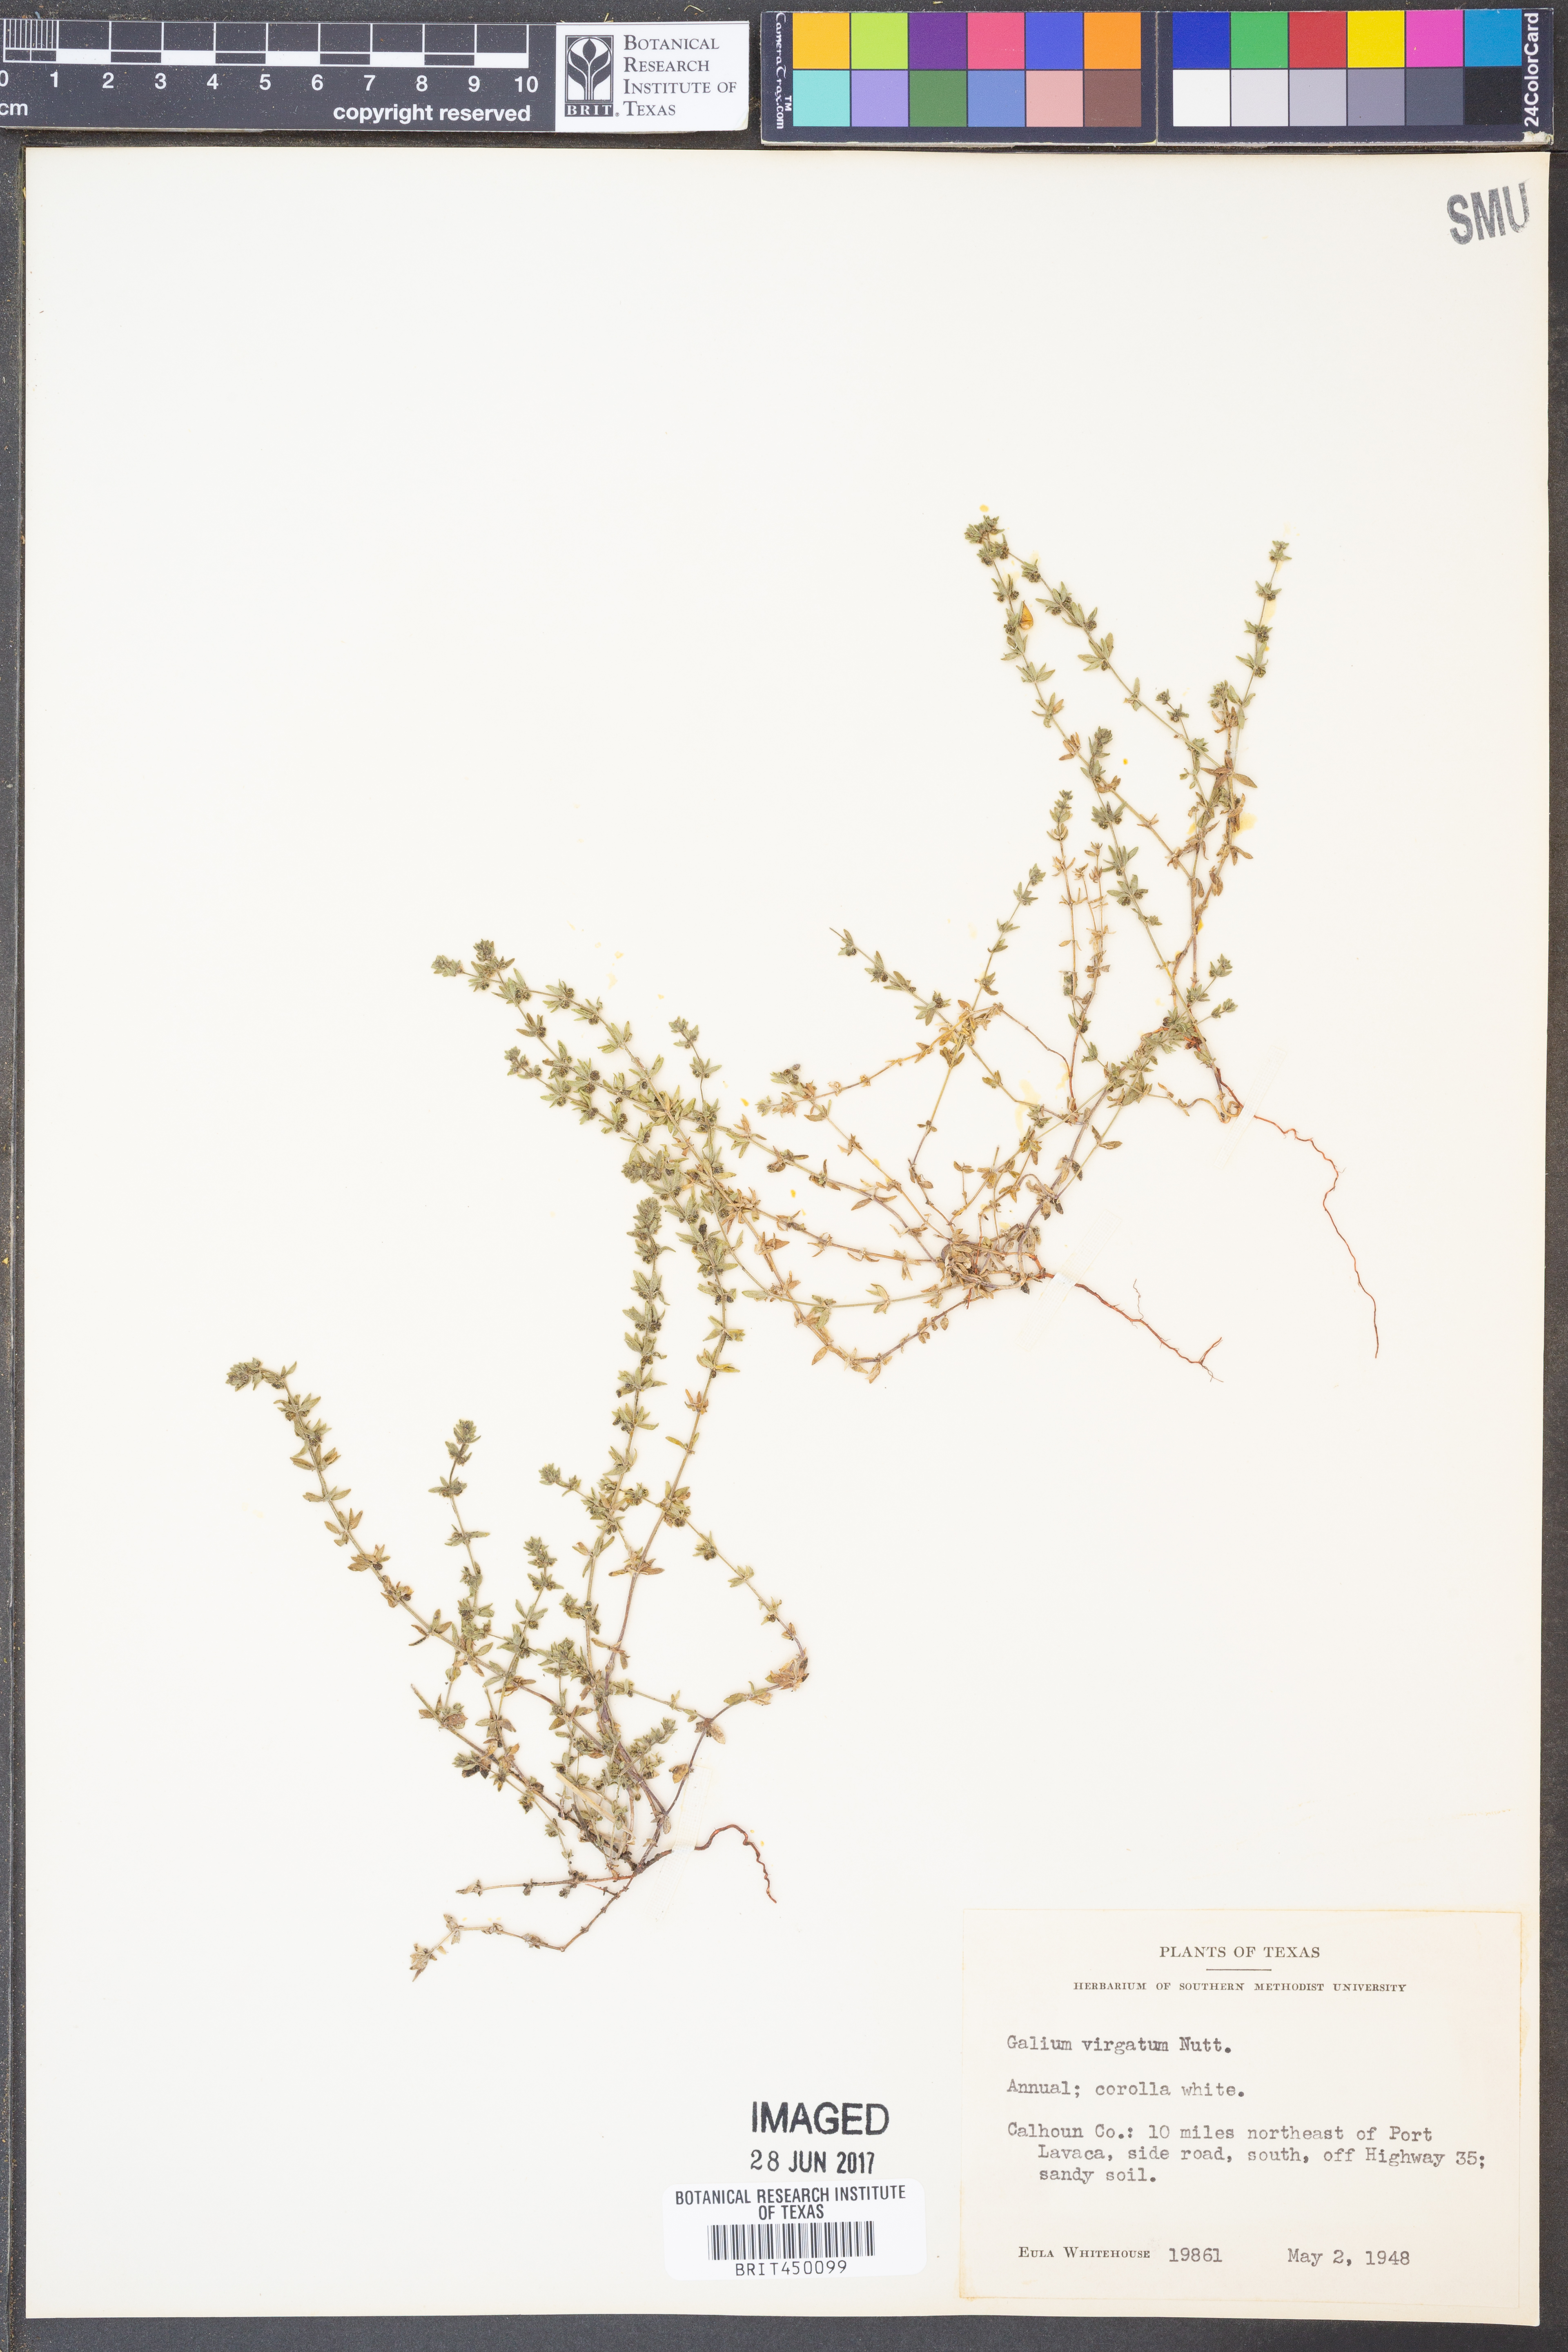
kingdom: Plantae
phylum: Tracheophyta
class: Magnoliopsida
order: Gentianales
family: Rubiaceae
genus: Galium
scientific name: Galium virgatum
